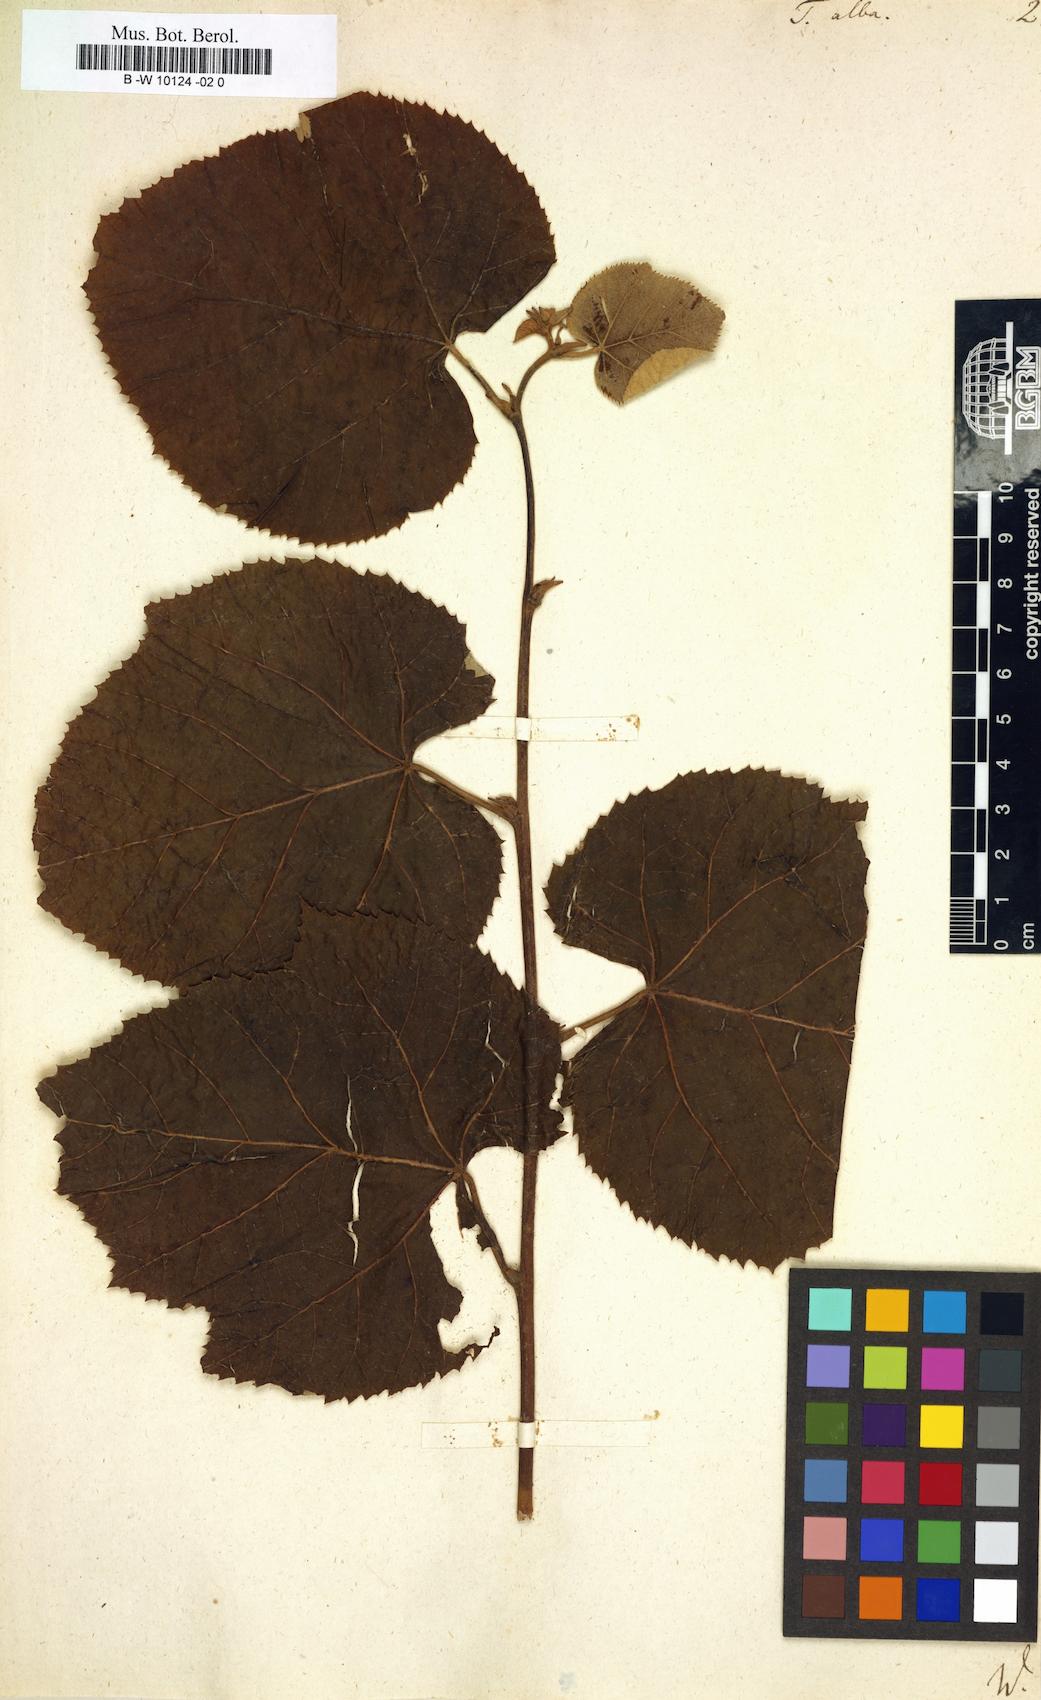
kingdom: Plantae
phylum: Tracheophyta
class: Magnoliopsida
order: Malvales
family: Malvaceae
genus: Tilia
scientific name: Tilia tomentosa
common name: Silver lime
